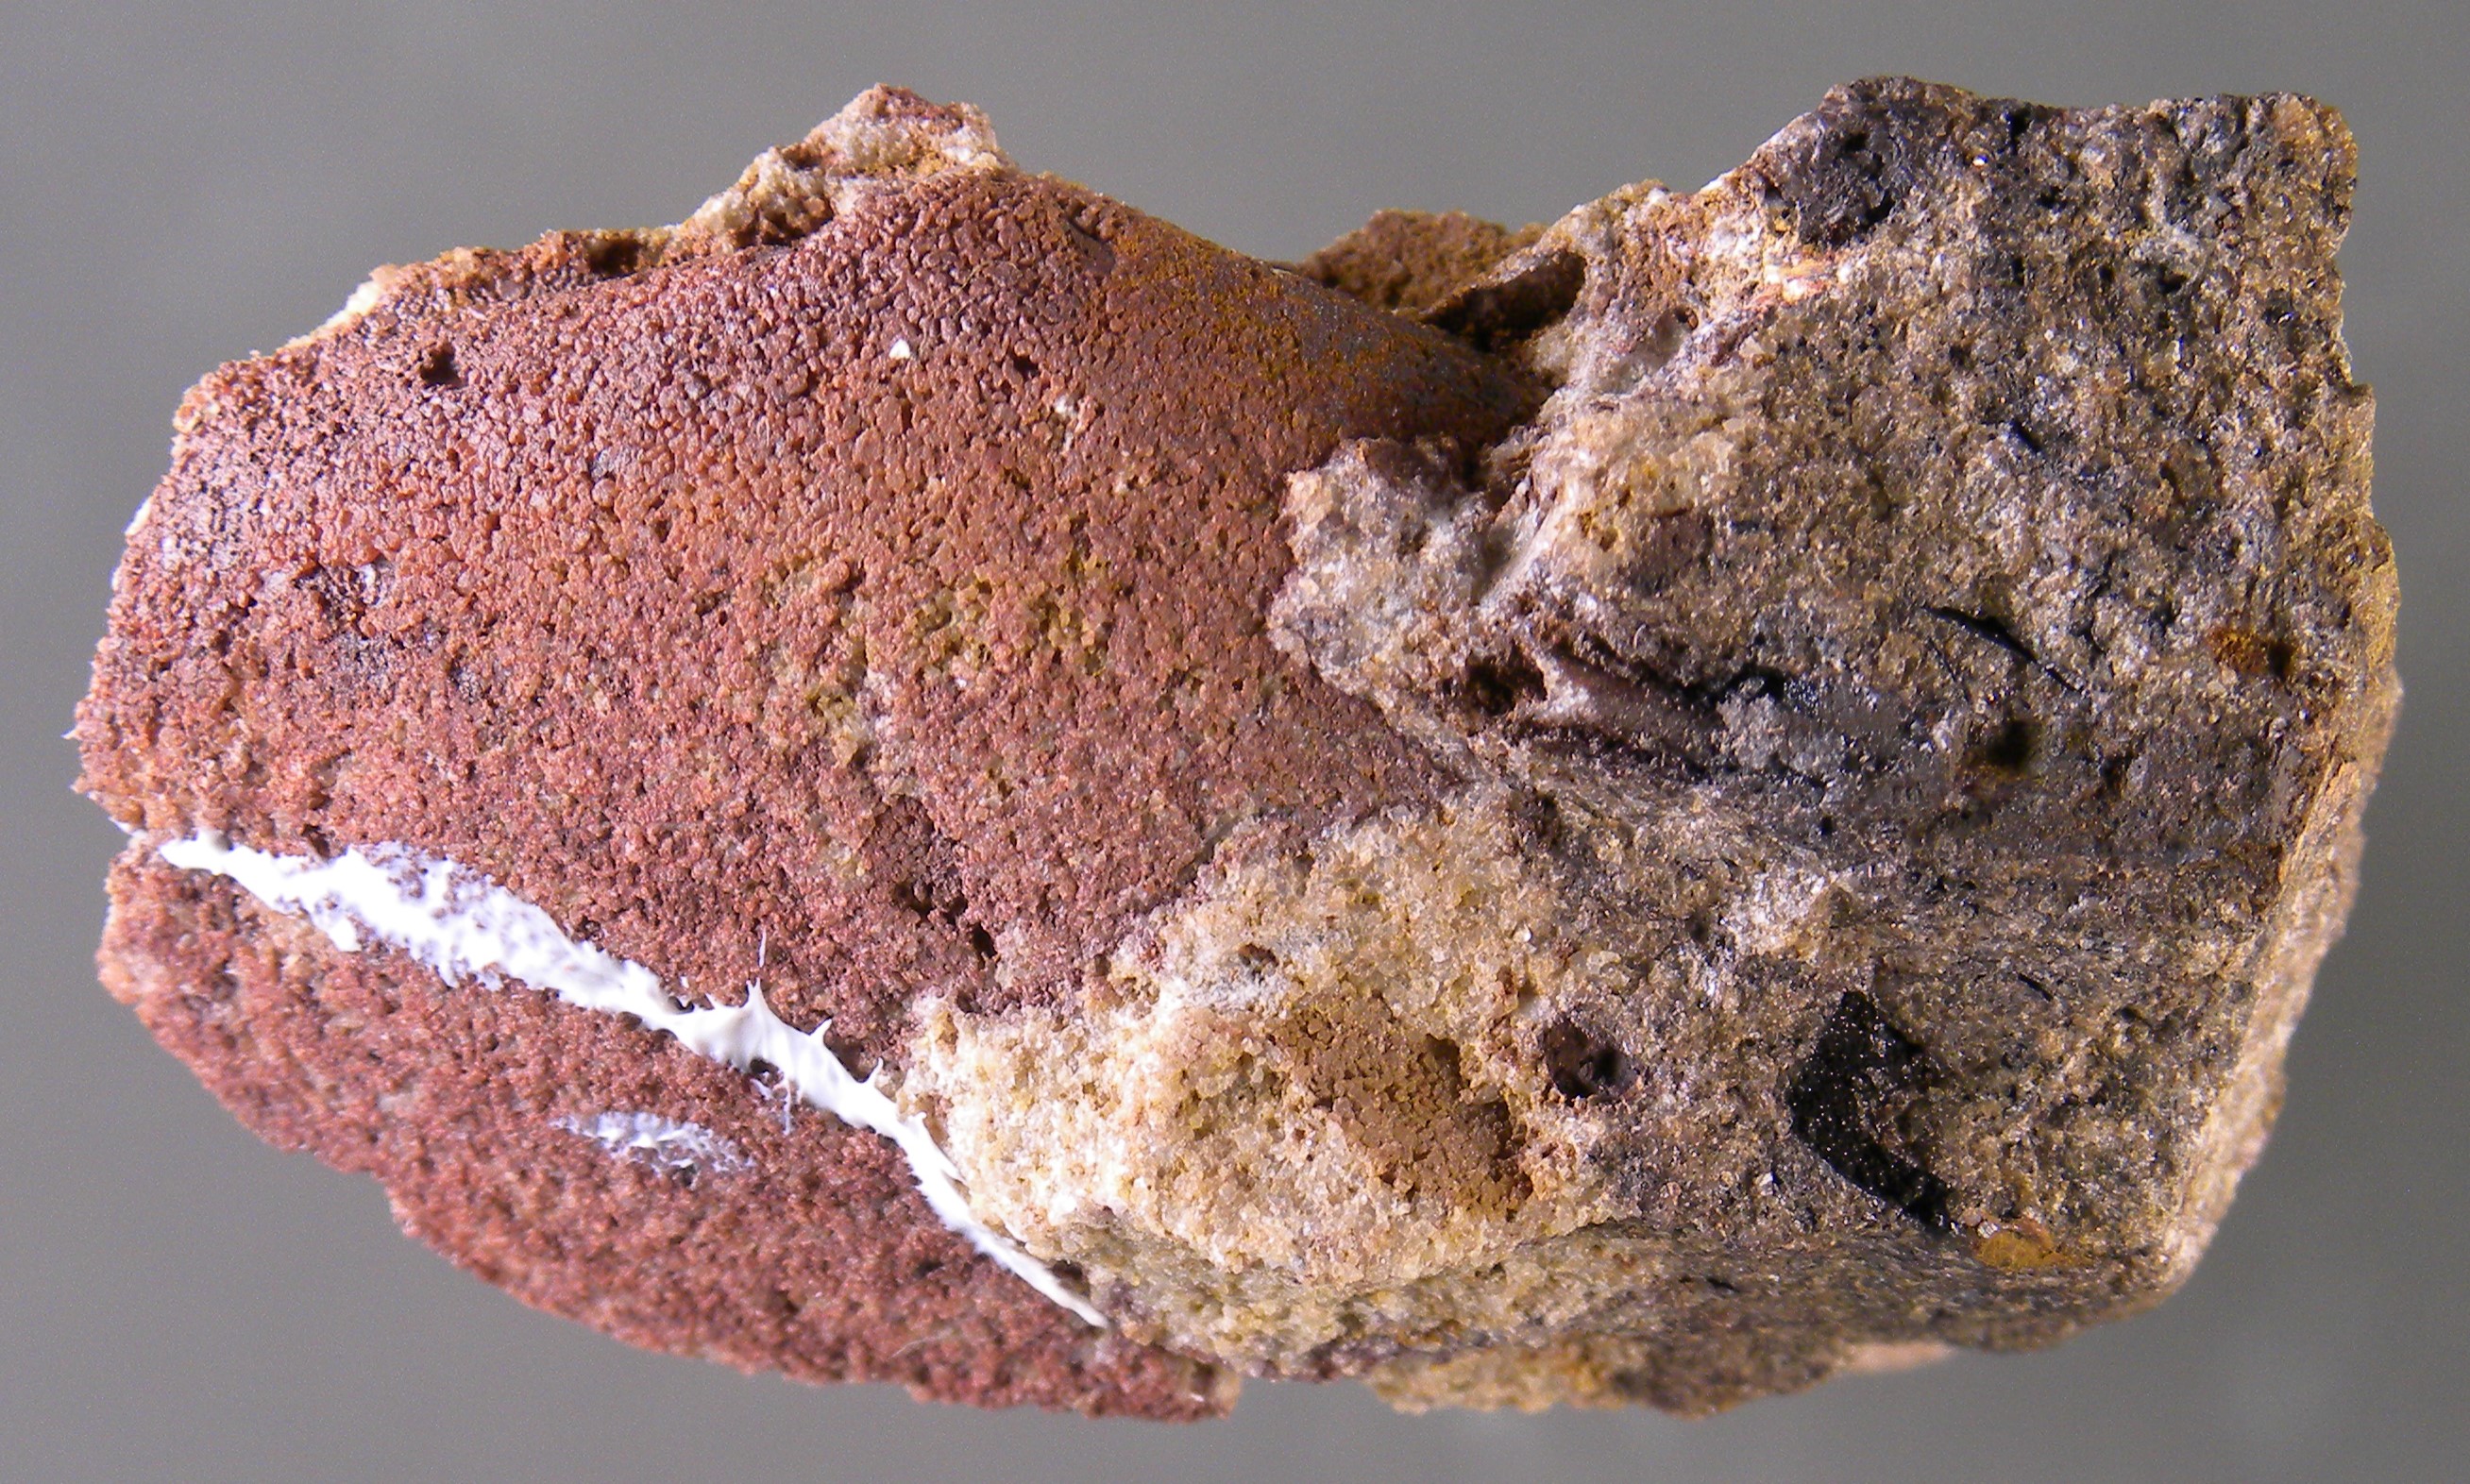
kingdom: Animalia
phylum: Mollusca
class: Bivalvia
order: Nuculanida
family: Malletiidae
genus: Palaeoneilo
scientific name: Palaeoneilo
